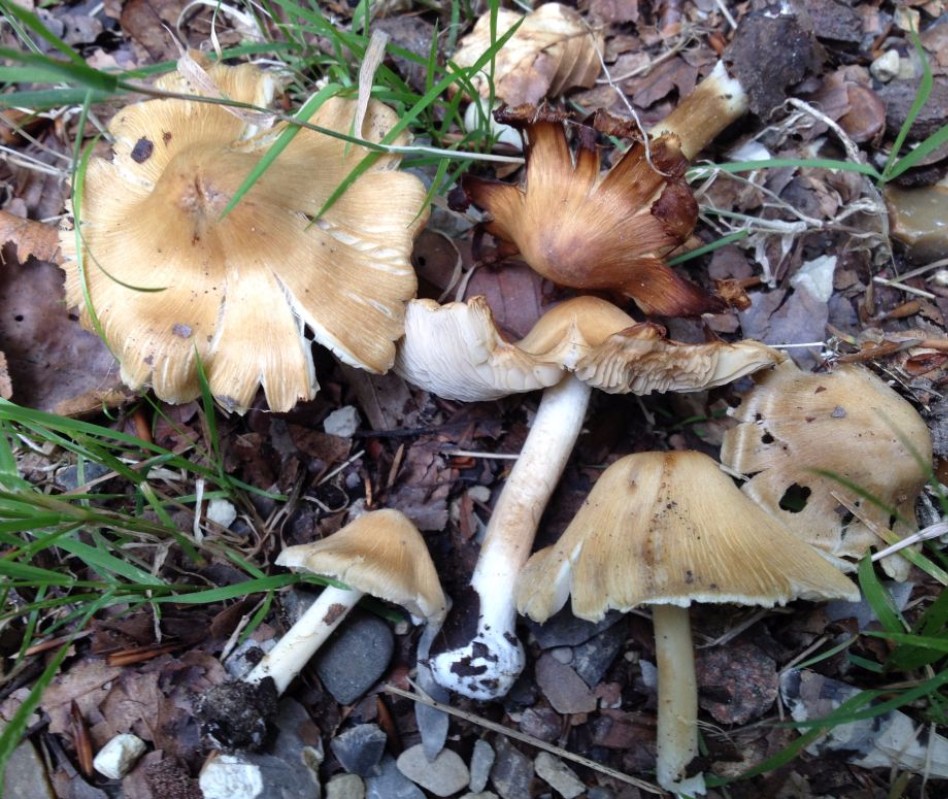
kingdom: Fungi
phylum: Basidiomycota
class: Agaricomycetes
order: Agaricales
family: Inocybaceae
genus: Inocybe
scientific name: Inocybe
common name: trævlhat
